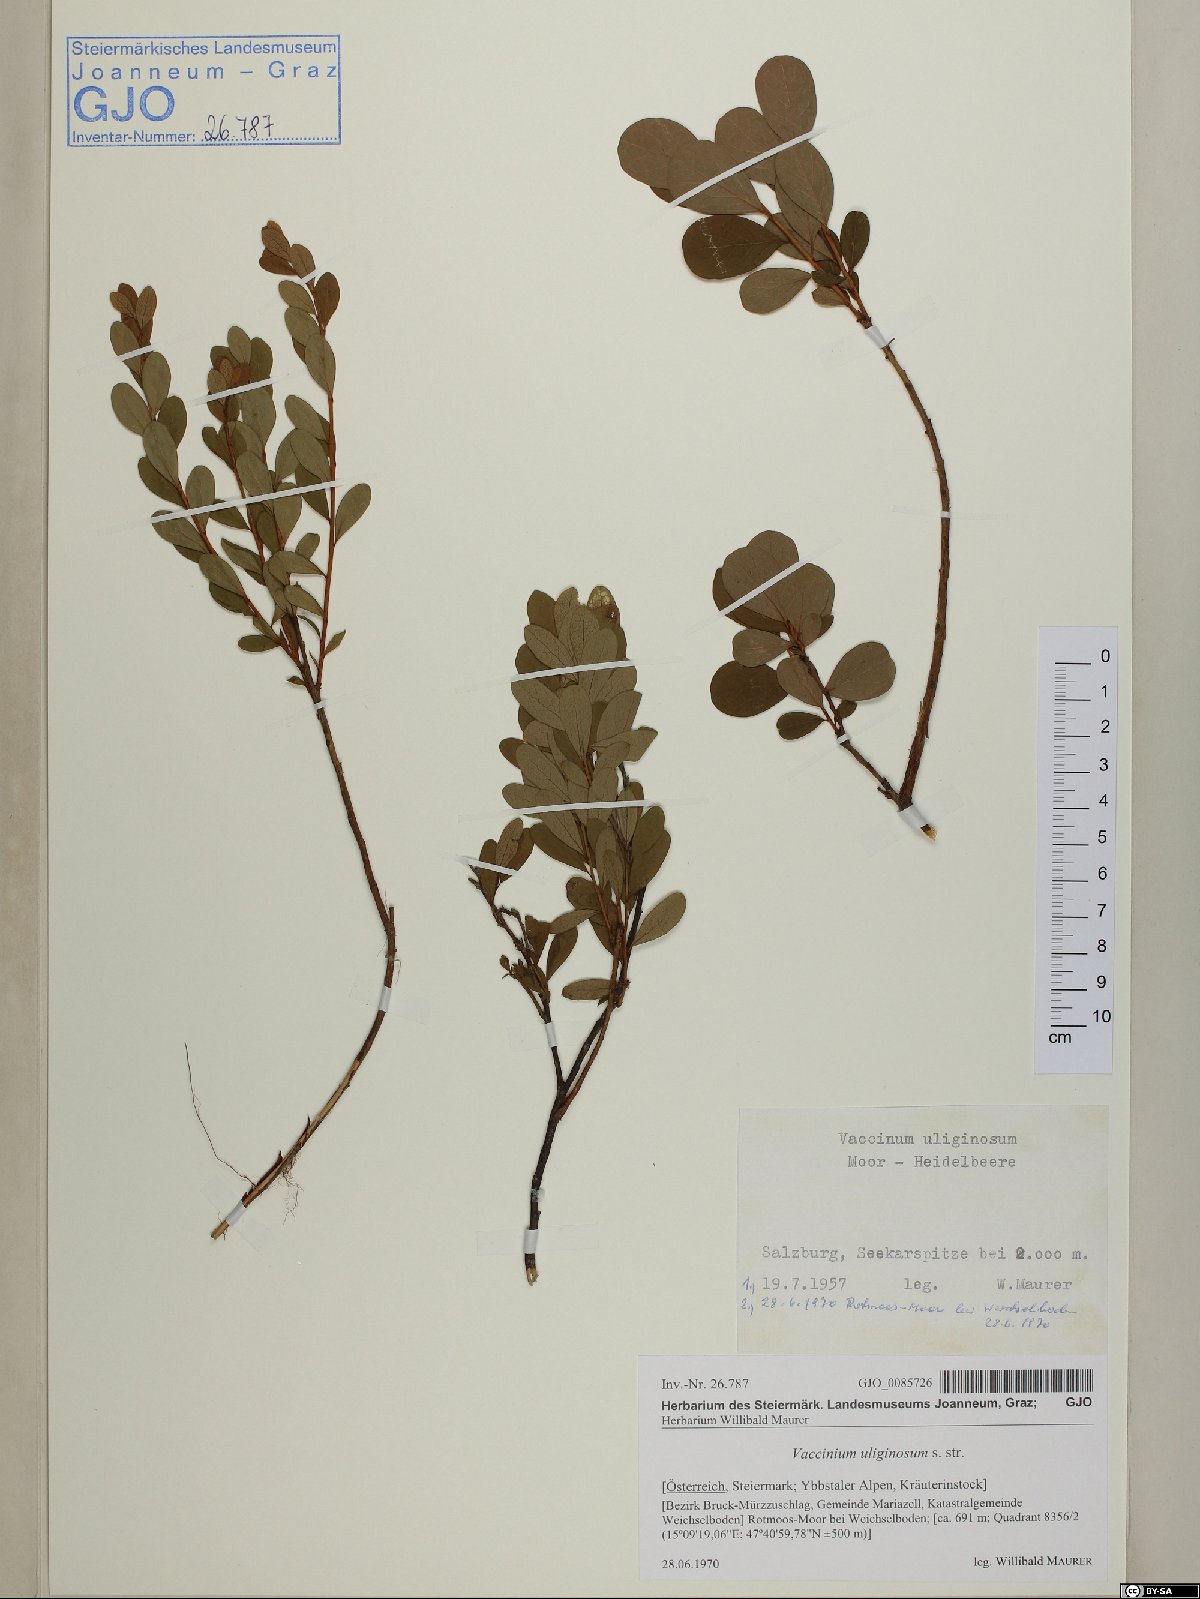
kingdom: Plantae
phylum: Tracheophyta
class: Magnoliopsida
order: Ericales
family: Ericaceae
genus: Vaccinium
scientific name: Vaccinium uliginosum
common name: Bog bilberry
